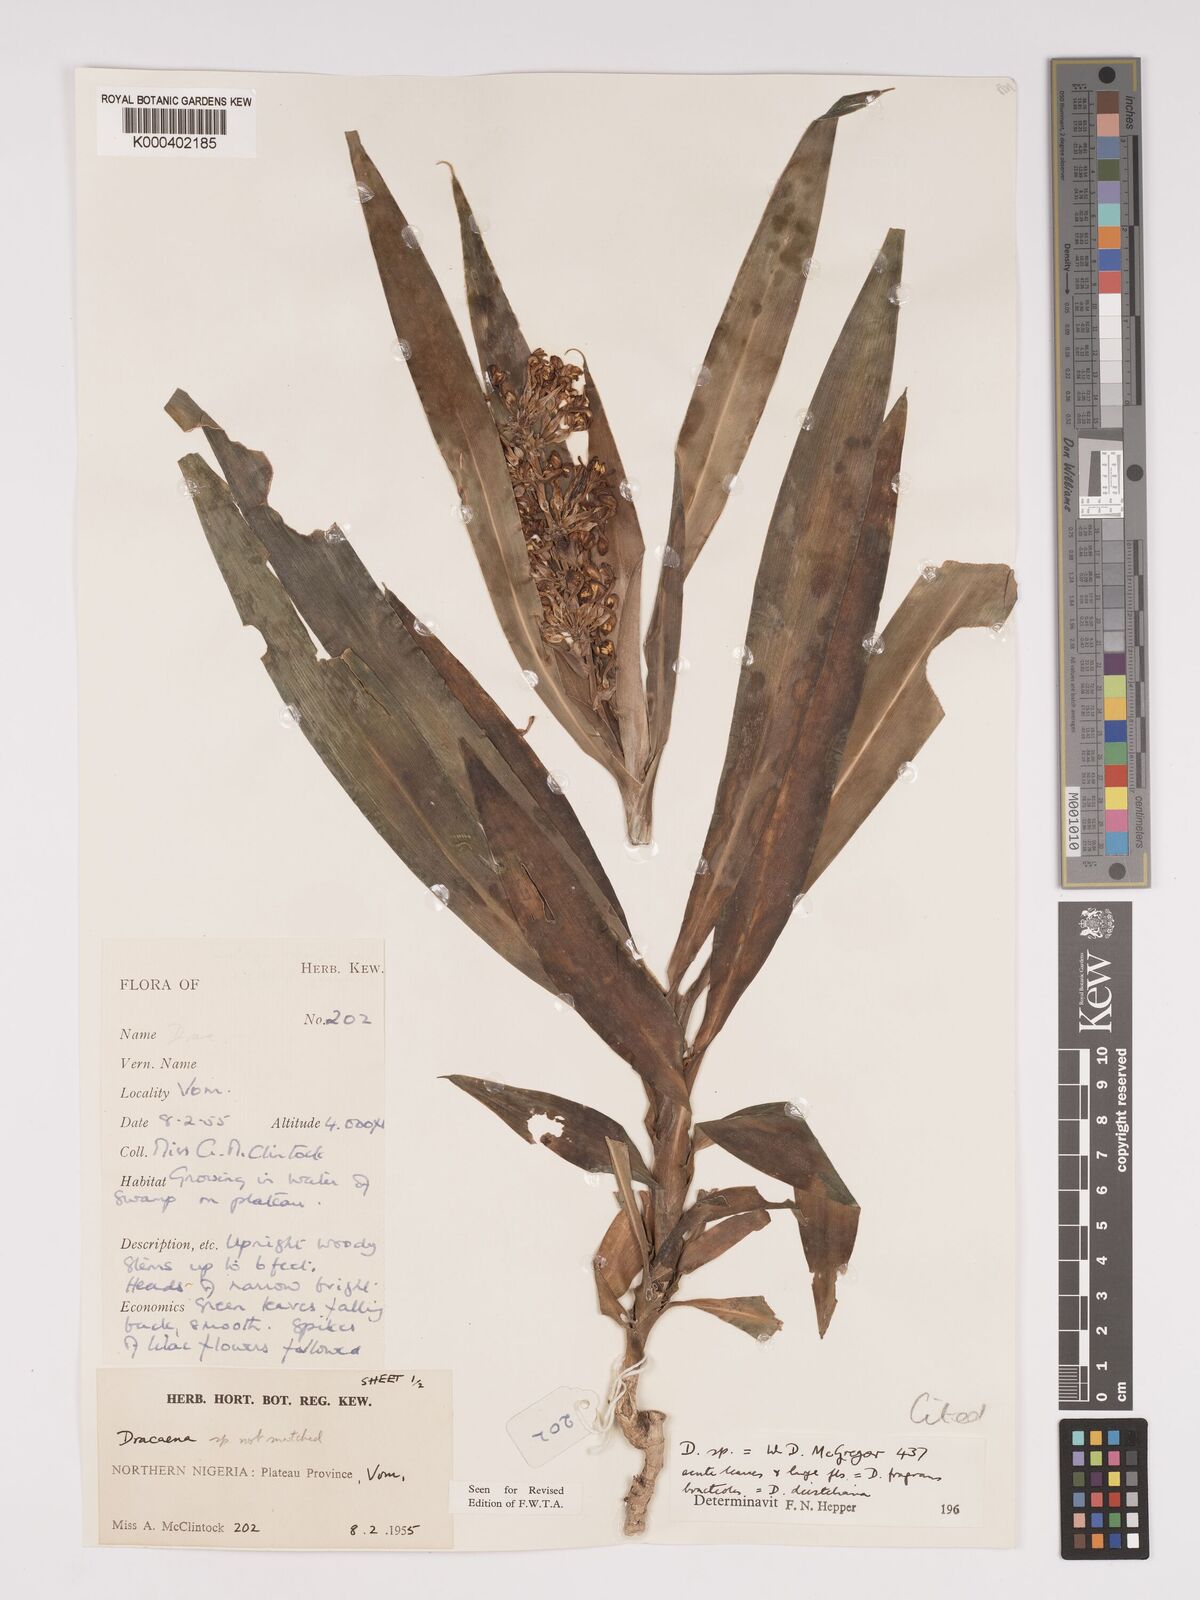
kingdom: Plantae
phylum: Tracheophyta
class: Liliopsida
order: Asparagales
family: Asparagaceae
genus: Dracaena
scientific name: Dracaena fragrans
